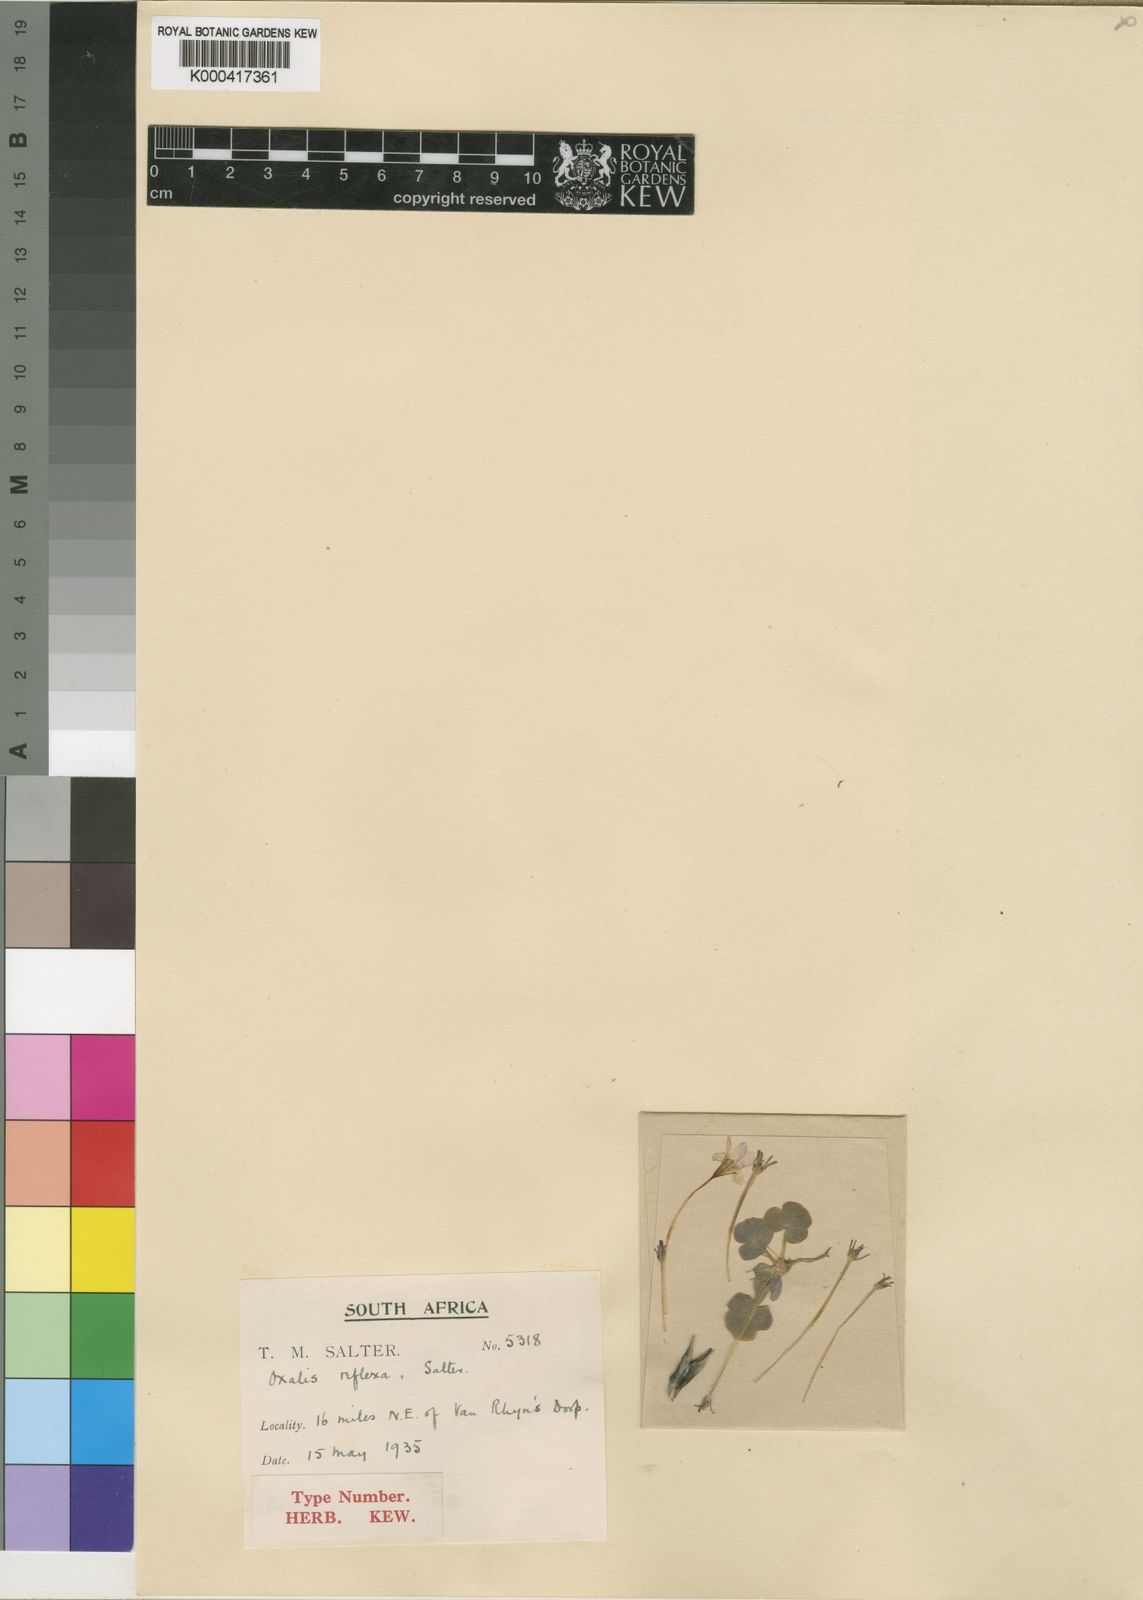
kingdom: Plantae
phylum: Tracheophyta
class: Magnoliopsida
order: Oxalidales
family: Oxalidaceae
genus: Oxalis
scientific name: Oxalis reflexa
